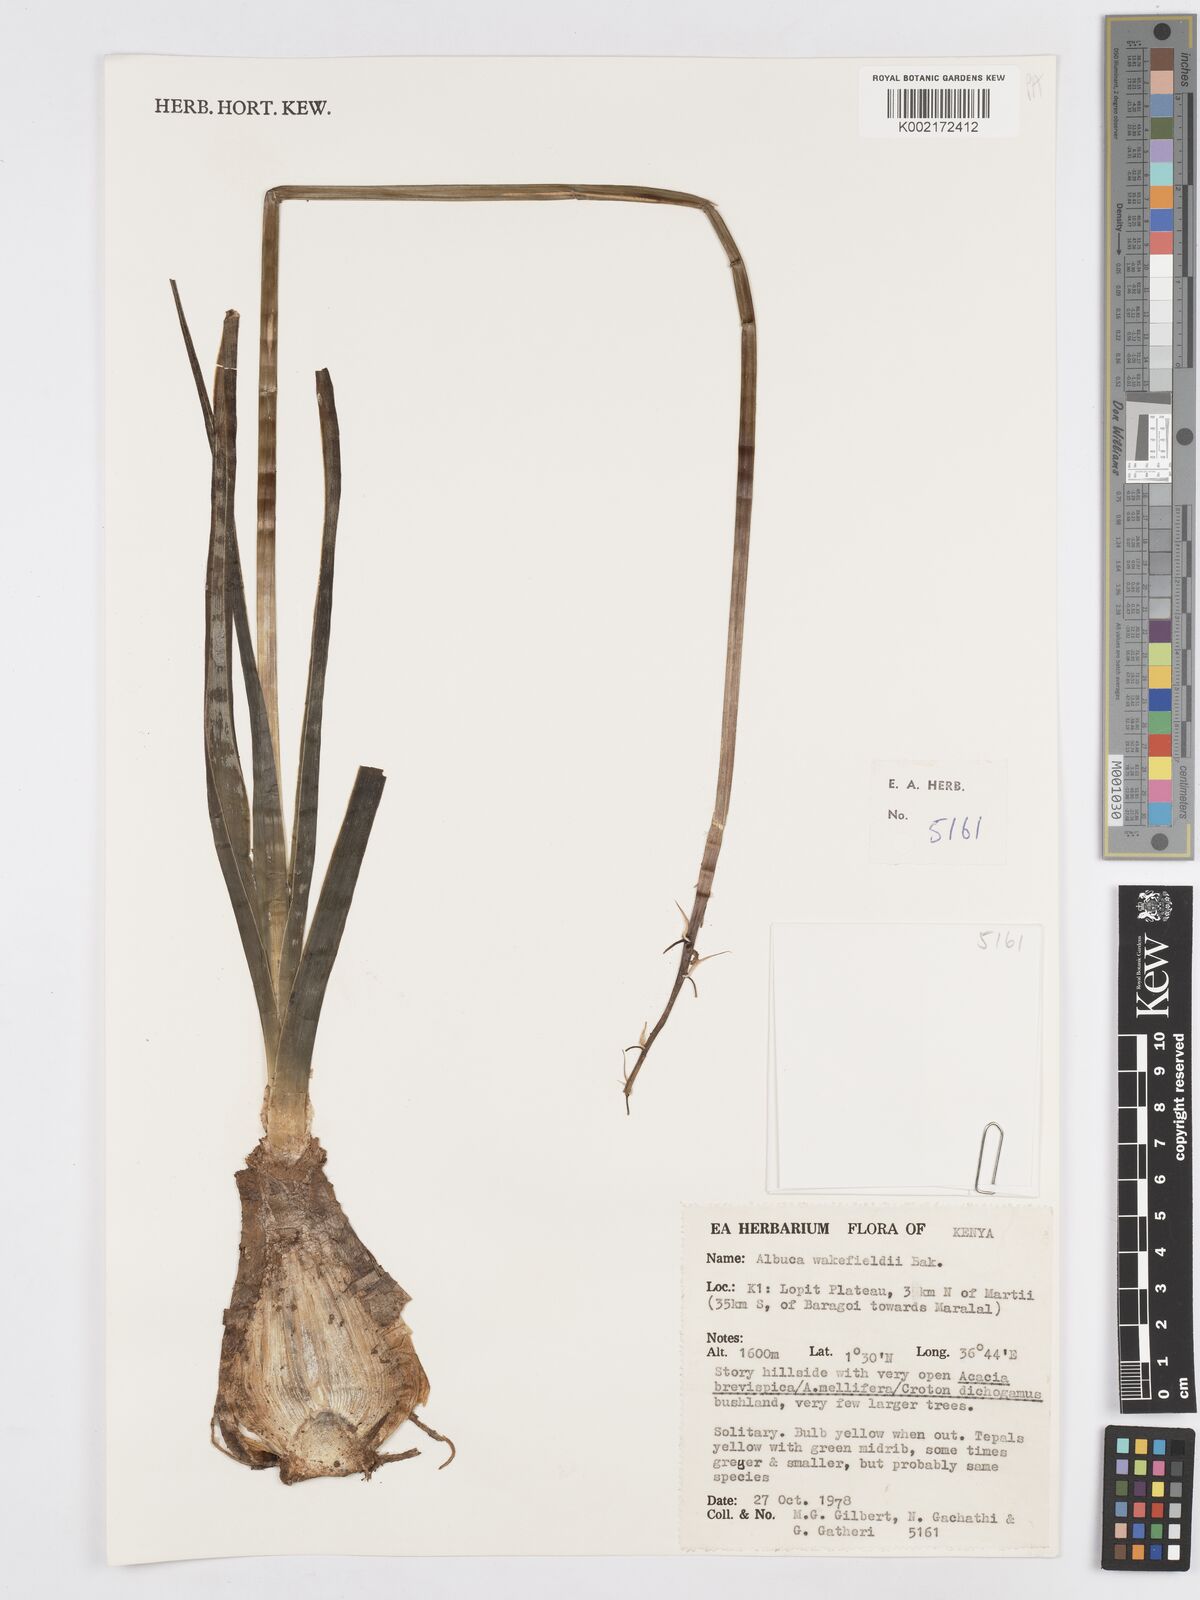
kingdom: Plantae
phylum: Tracheophyta
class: Liliopsida
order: Asparagales
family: Asparagaceae
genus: Albuca
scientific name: Albuca abyssinica
